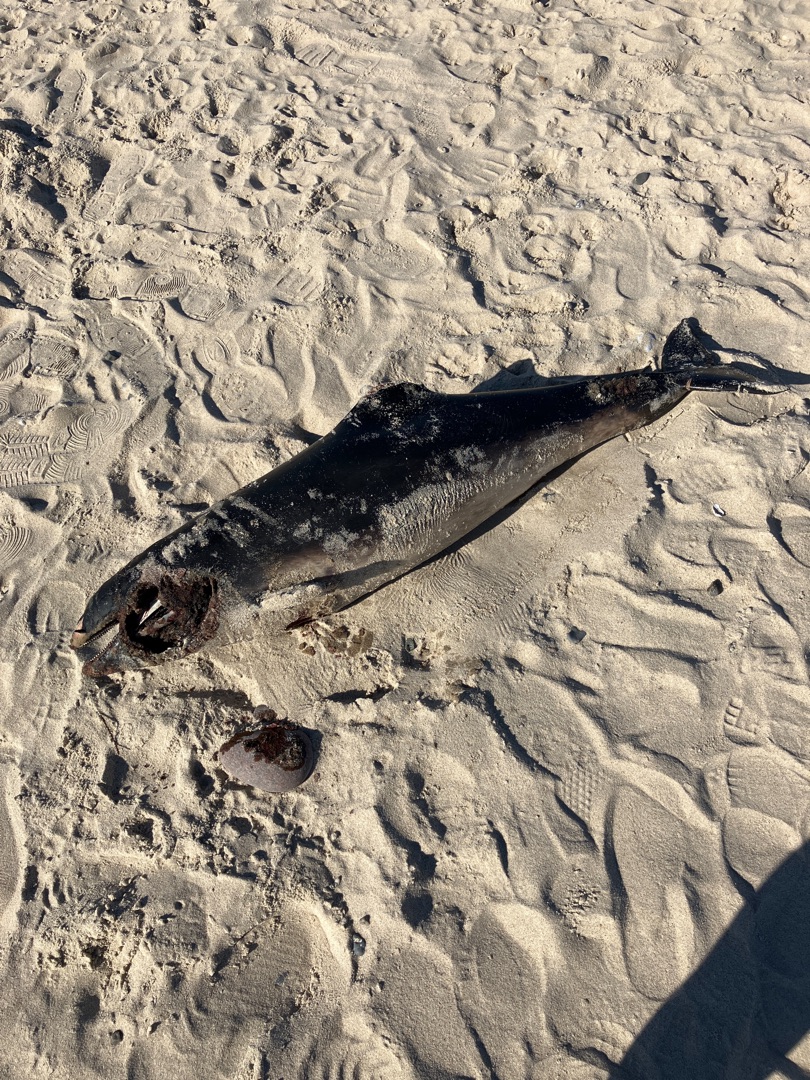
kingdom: Animalia
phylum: Chordata
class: Mammalia
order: Cetacea
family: Phocoenidae
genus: Phocoena
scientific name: Phocoena phocoena
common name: Marsvin
